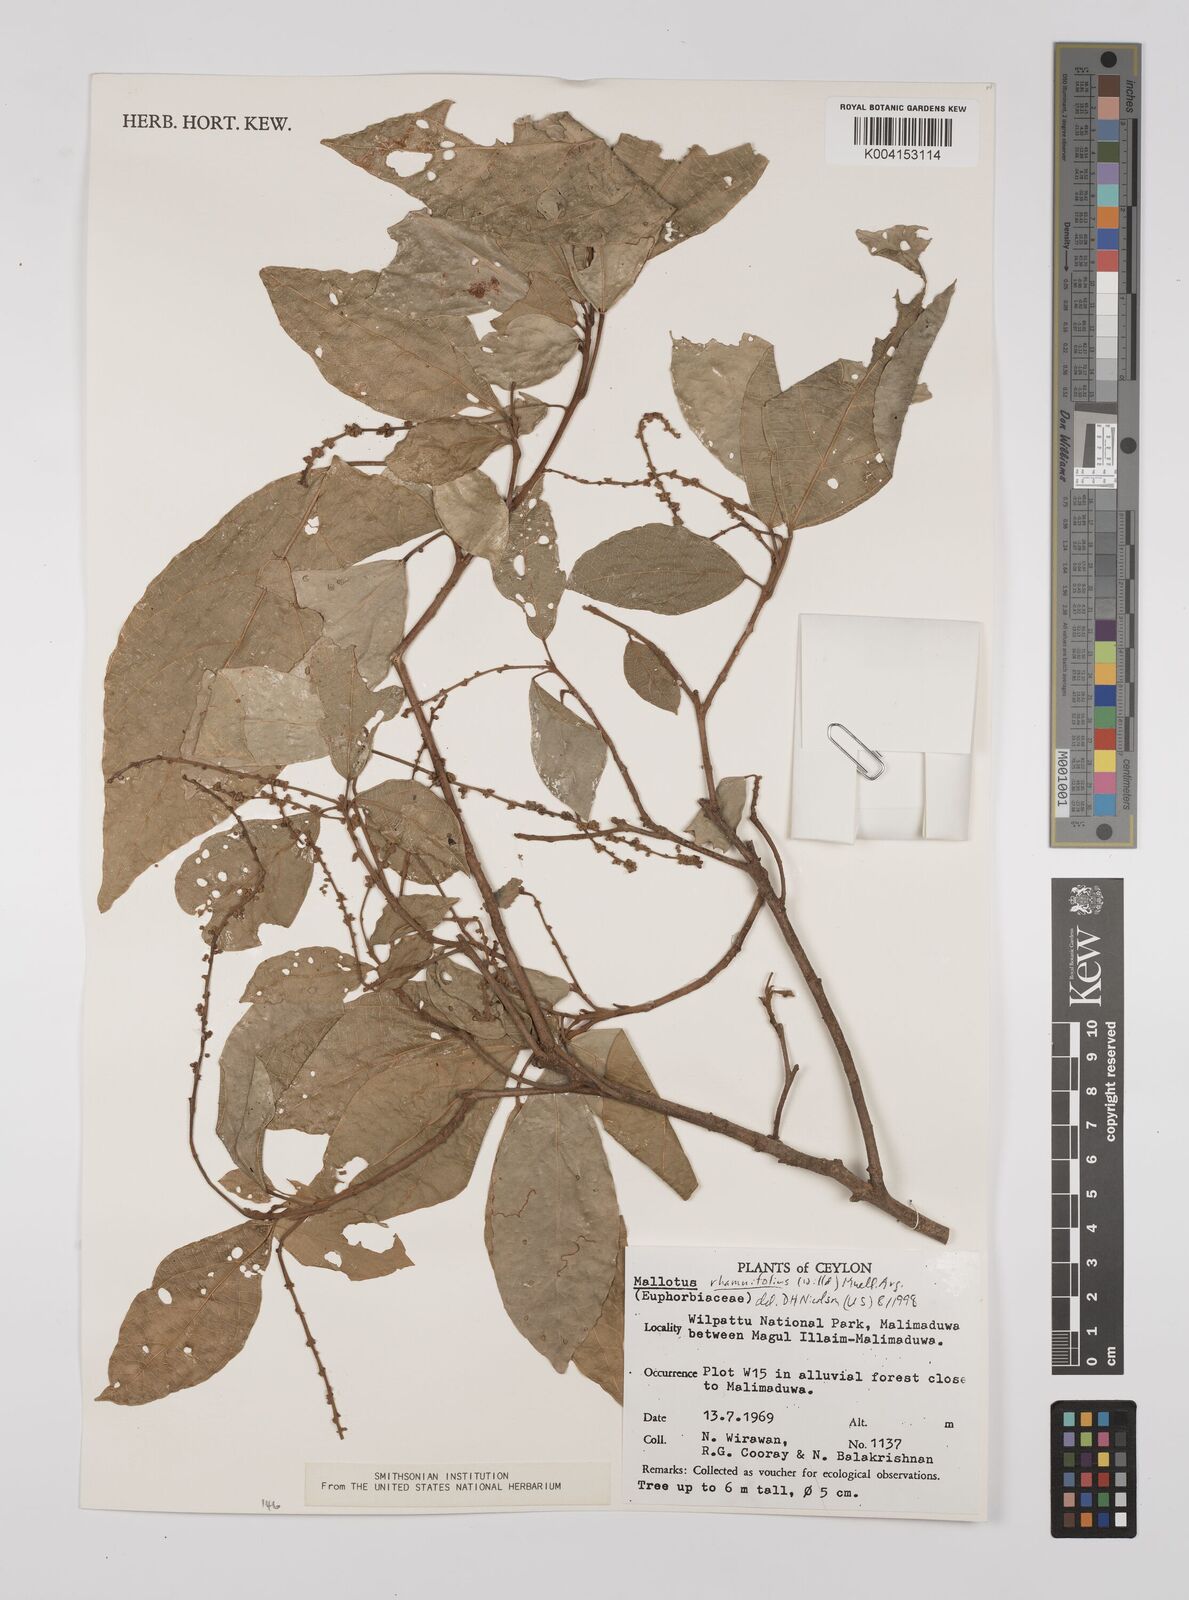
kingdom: Plantae
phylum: Tracheophyta
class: Magnoliopsida
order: Malpighiales
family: Euphorbiaceae
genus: Mallotus
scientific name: Mallotus rhamnifolius
